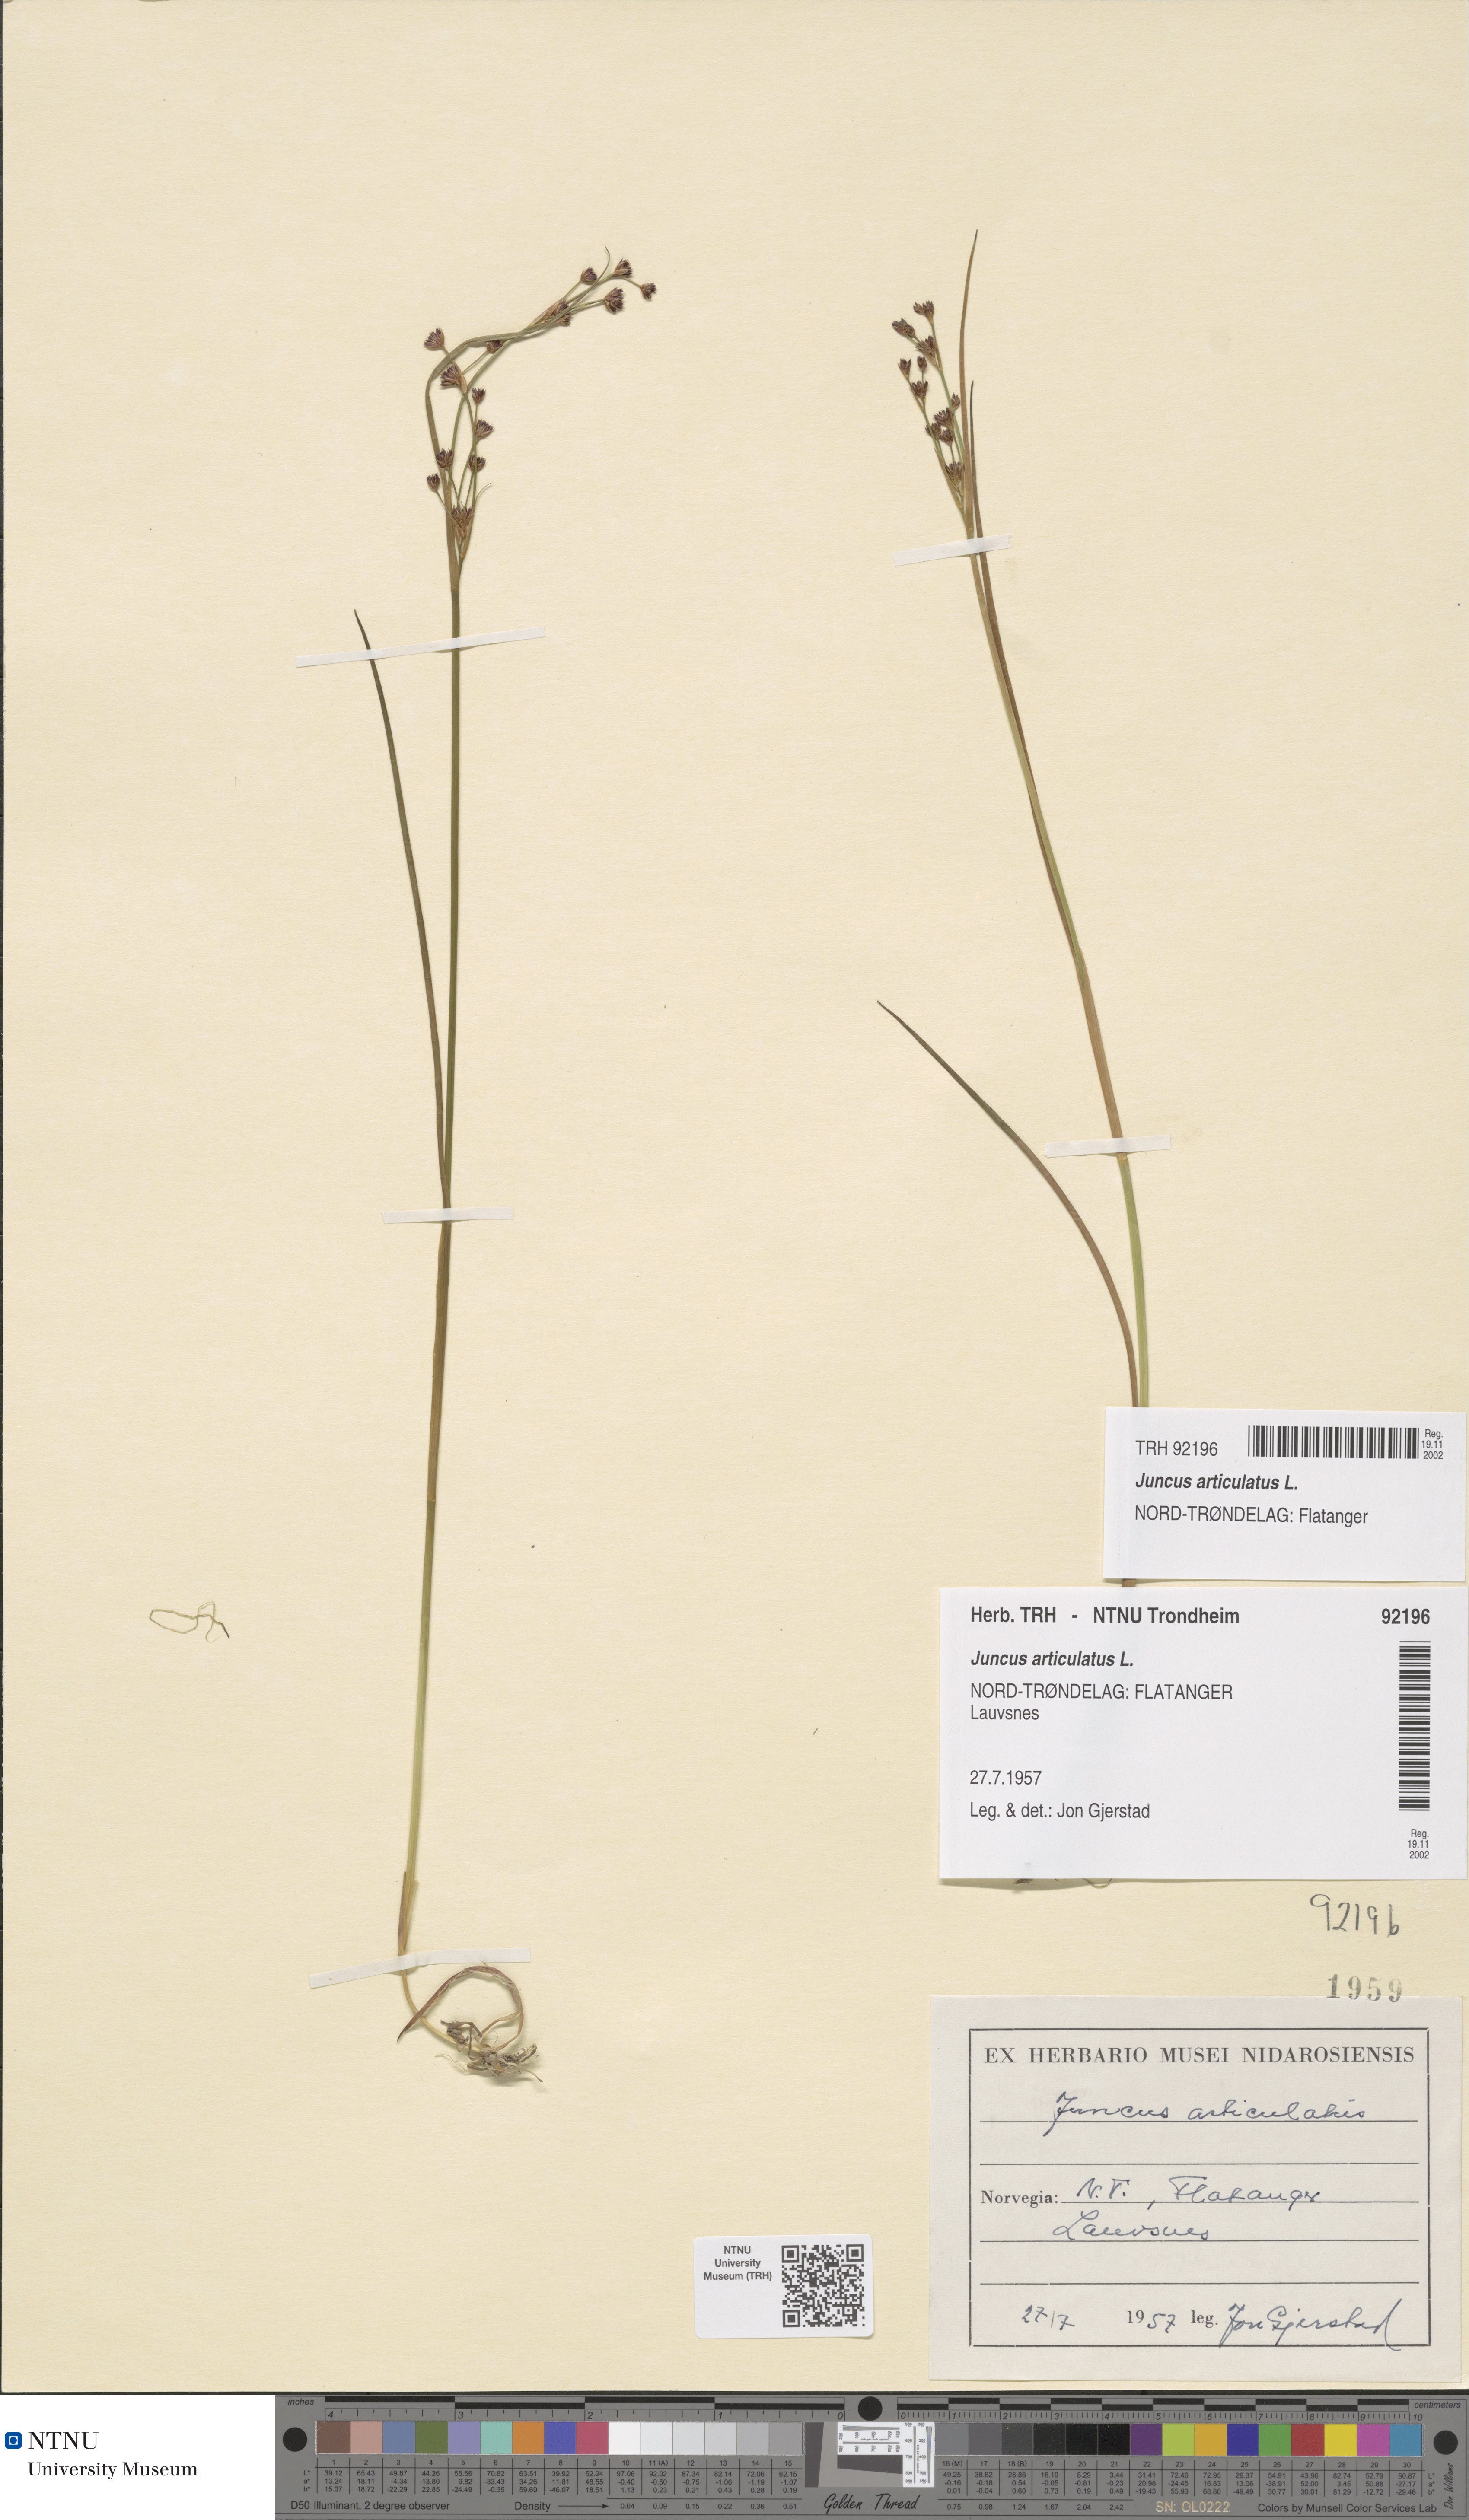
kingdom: Plantae
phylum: Tracheophyta
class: Liliopsida
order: Poales
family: Juncaceae
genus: Juncus
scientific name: Juncus articulatus
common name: Jointed rush
